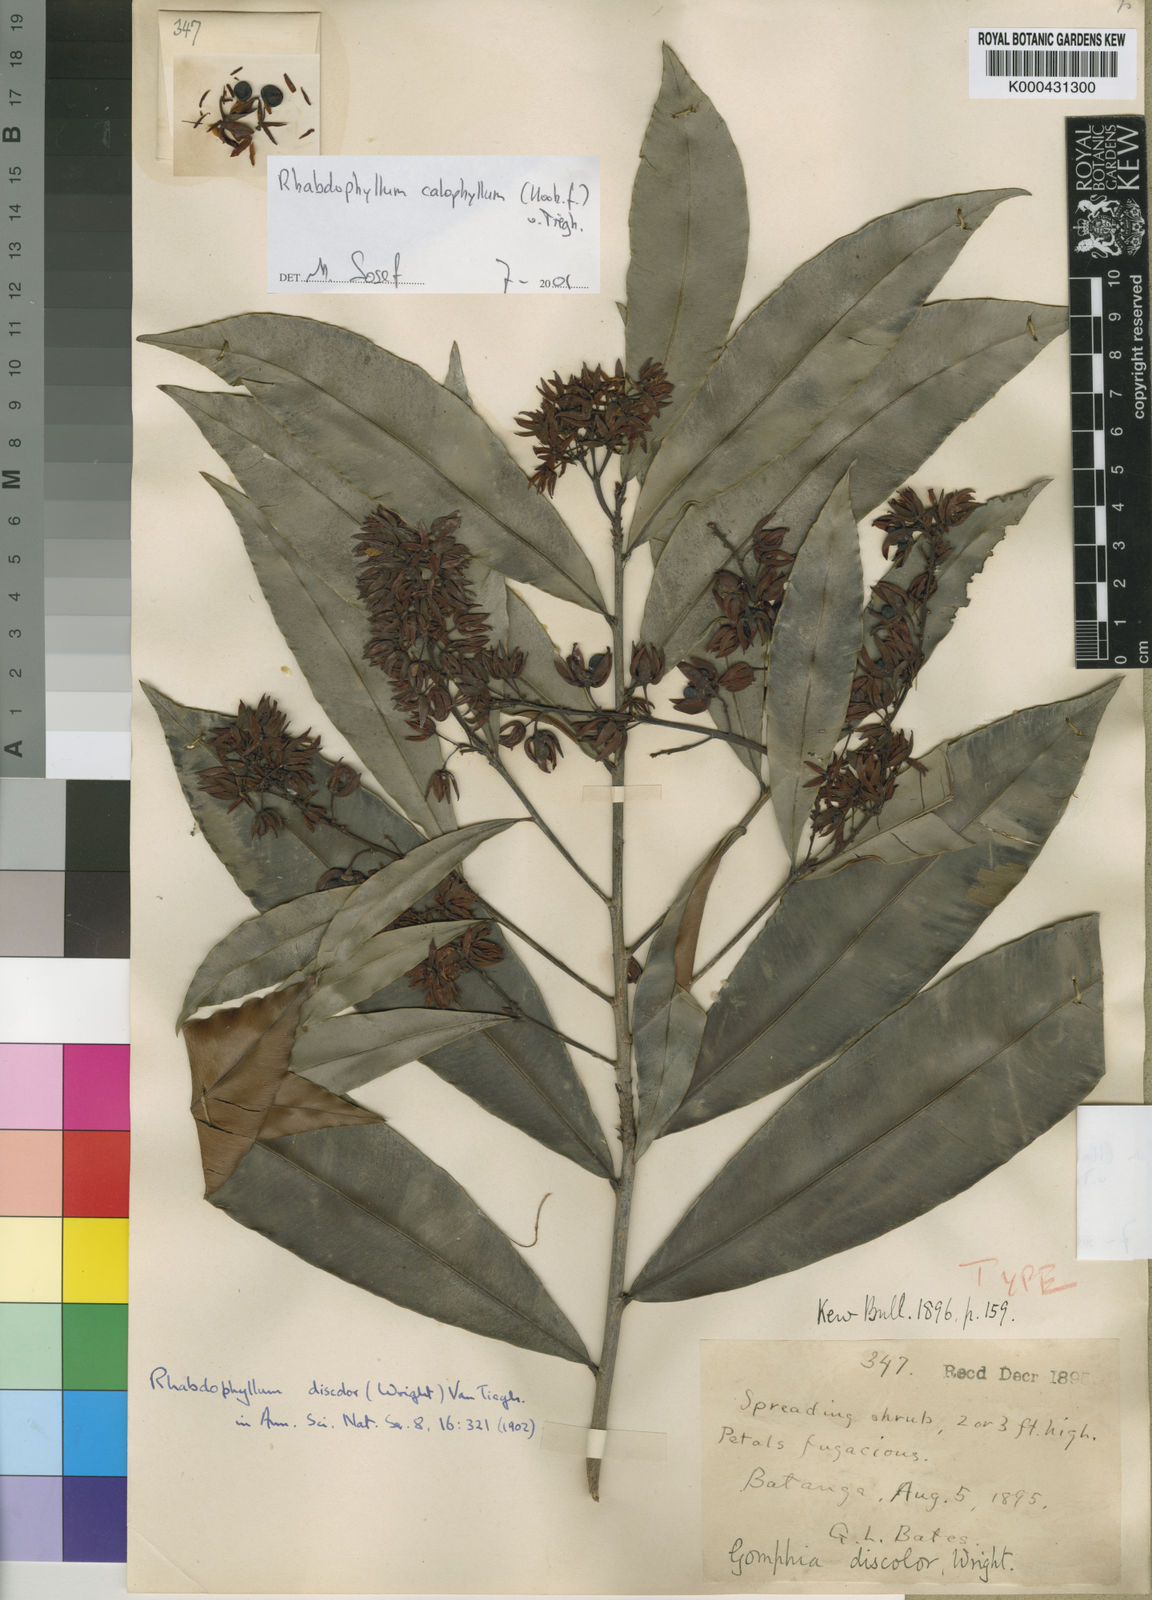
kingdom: Plantae
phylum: Tracheophyta
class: Magnoliopsida
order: Malpighiales
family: Ochnaceae
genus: Rhabdophyllum
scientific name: Rhabdophyllum calophyllum
